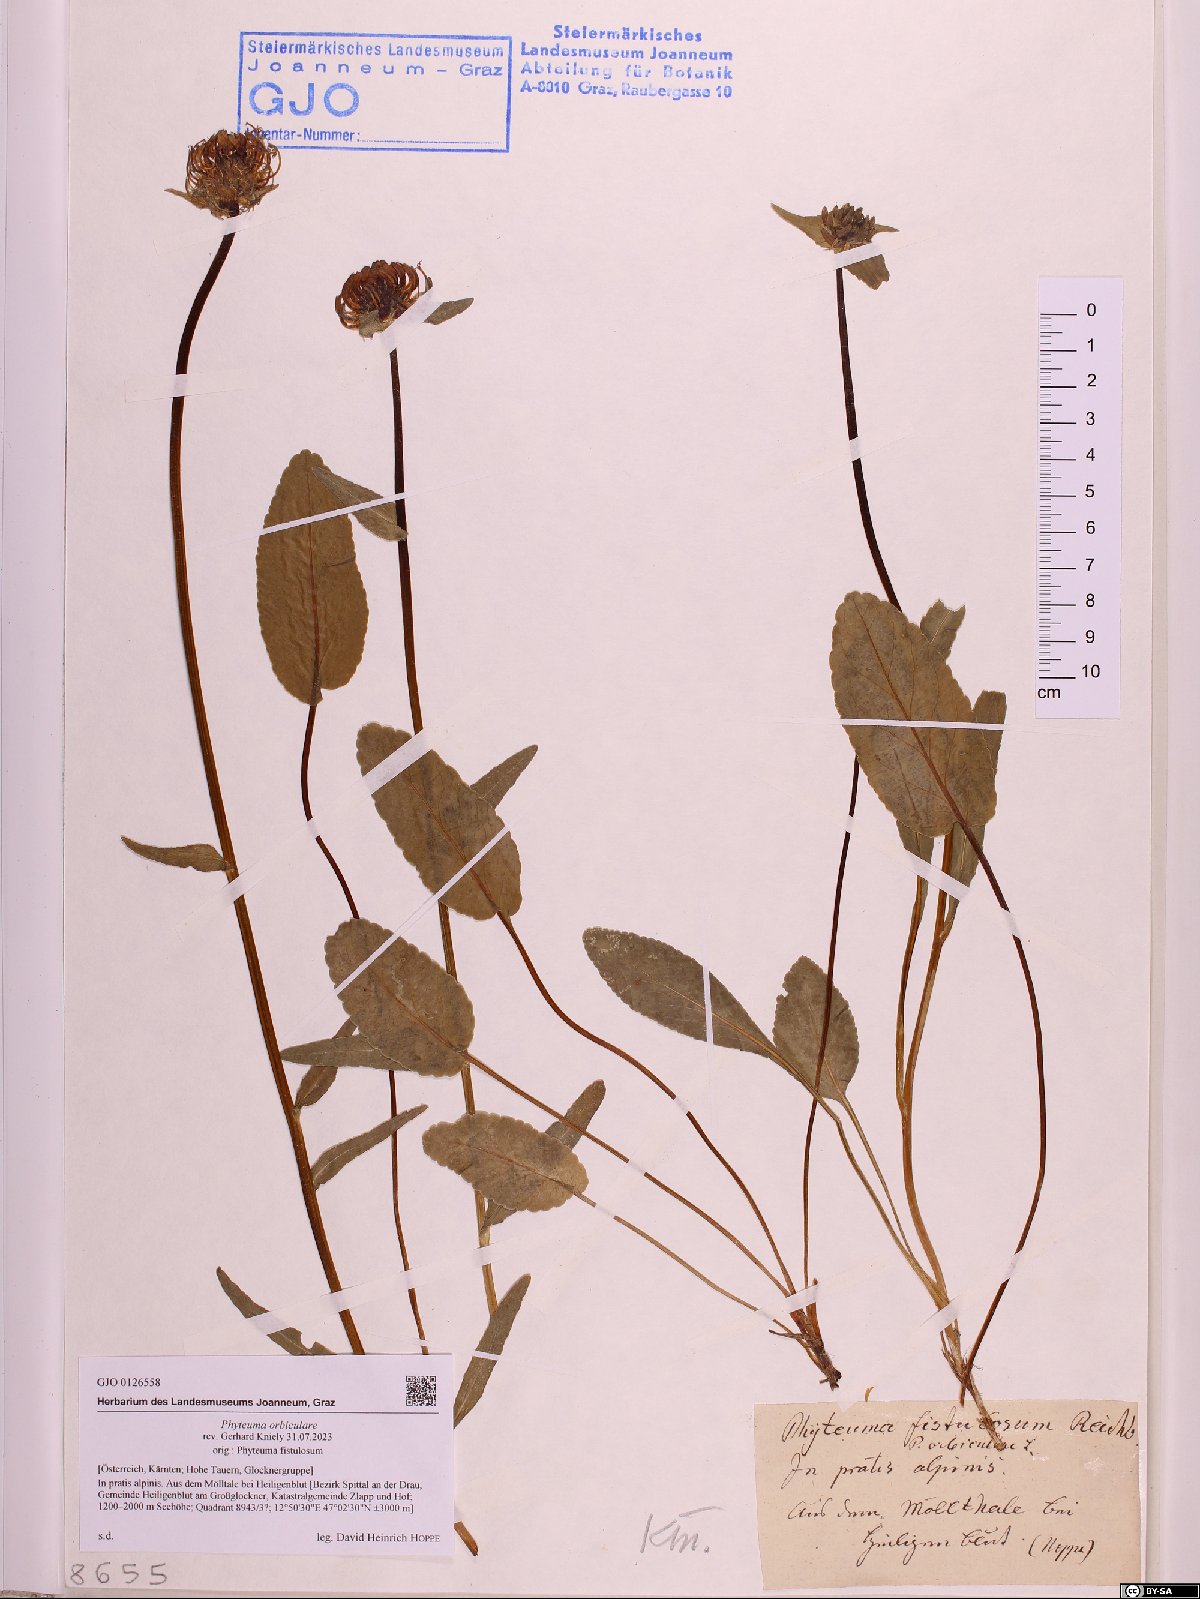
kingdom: Plantae
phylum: Tracheophyta
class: Magnoliopsida
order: Asterales
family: Campanulaceae
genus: Phyteuma
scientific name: Phyteuma orbiculare
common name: Round-headed rampion
